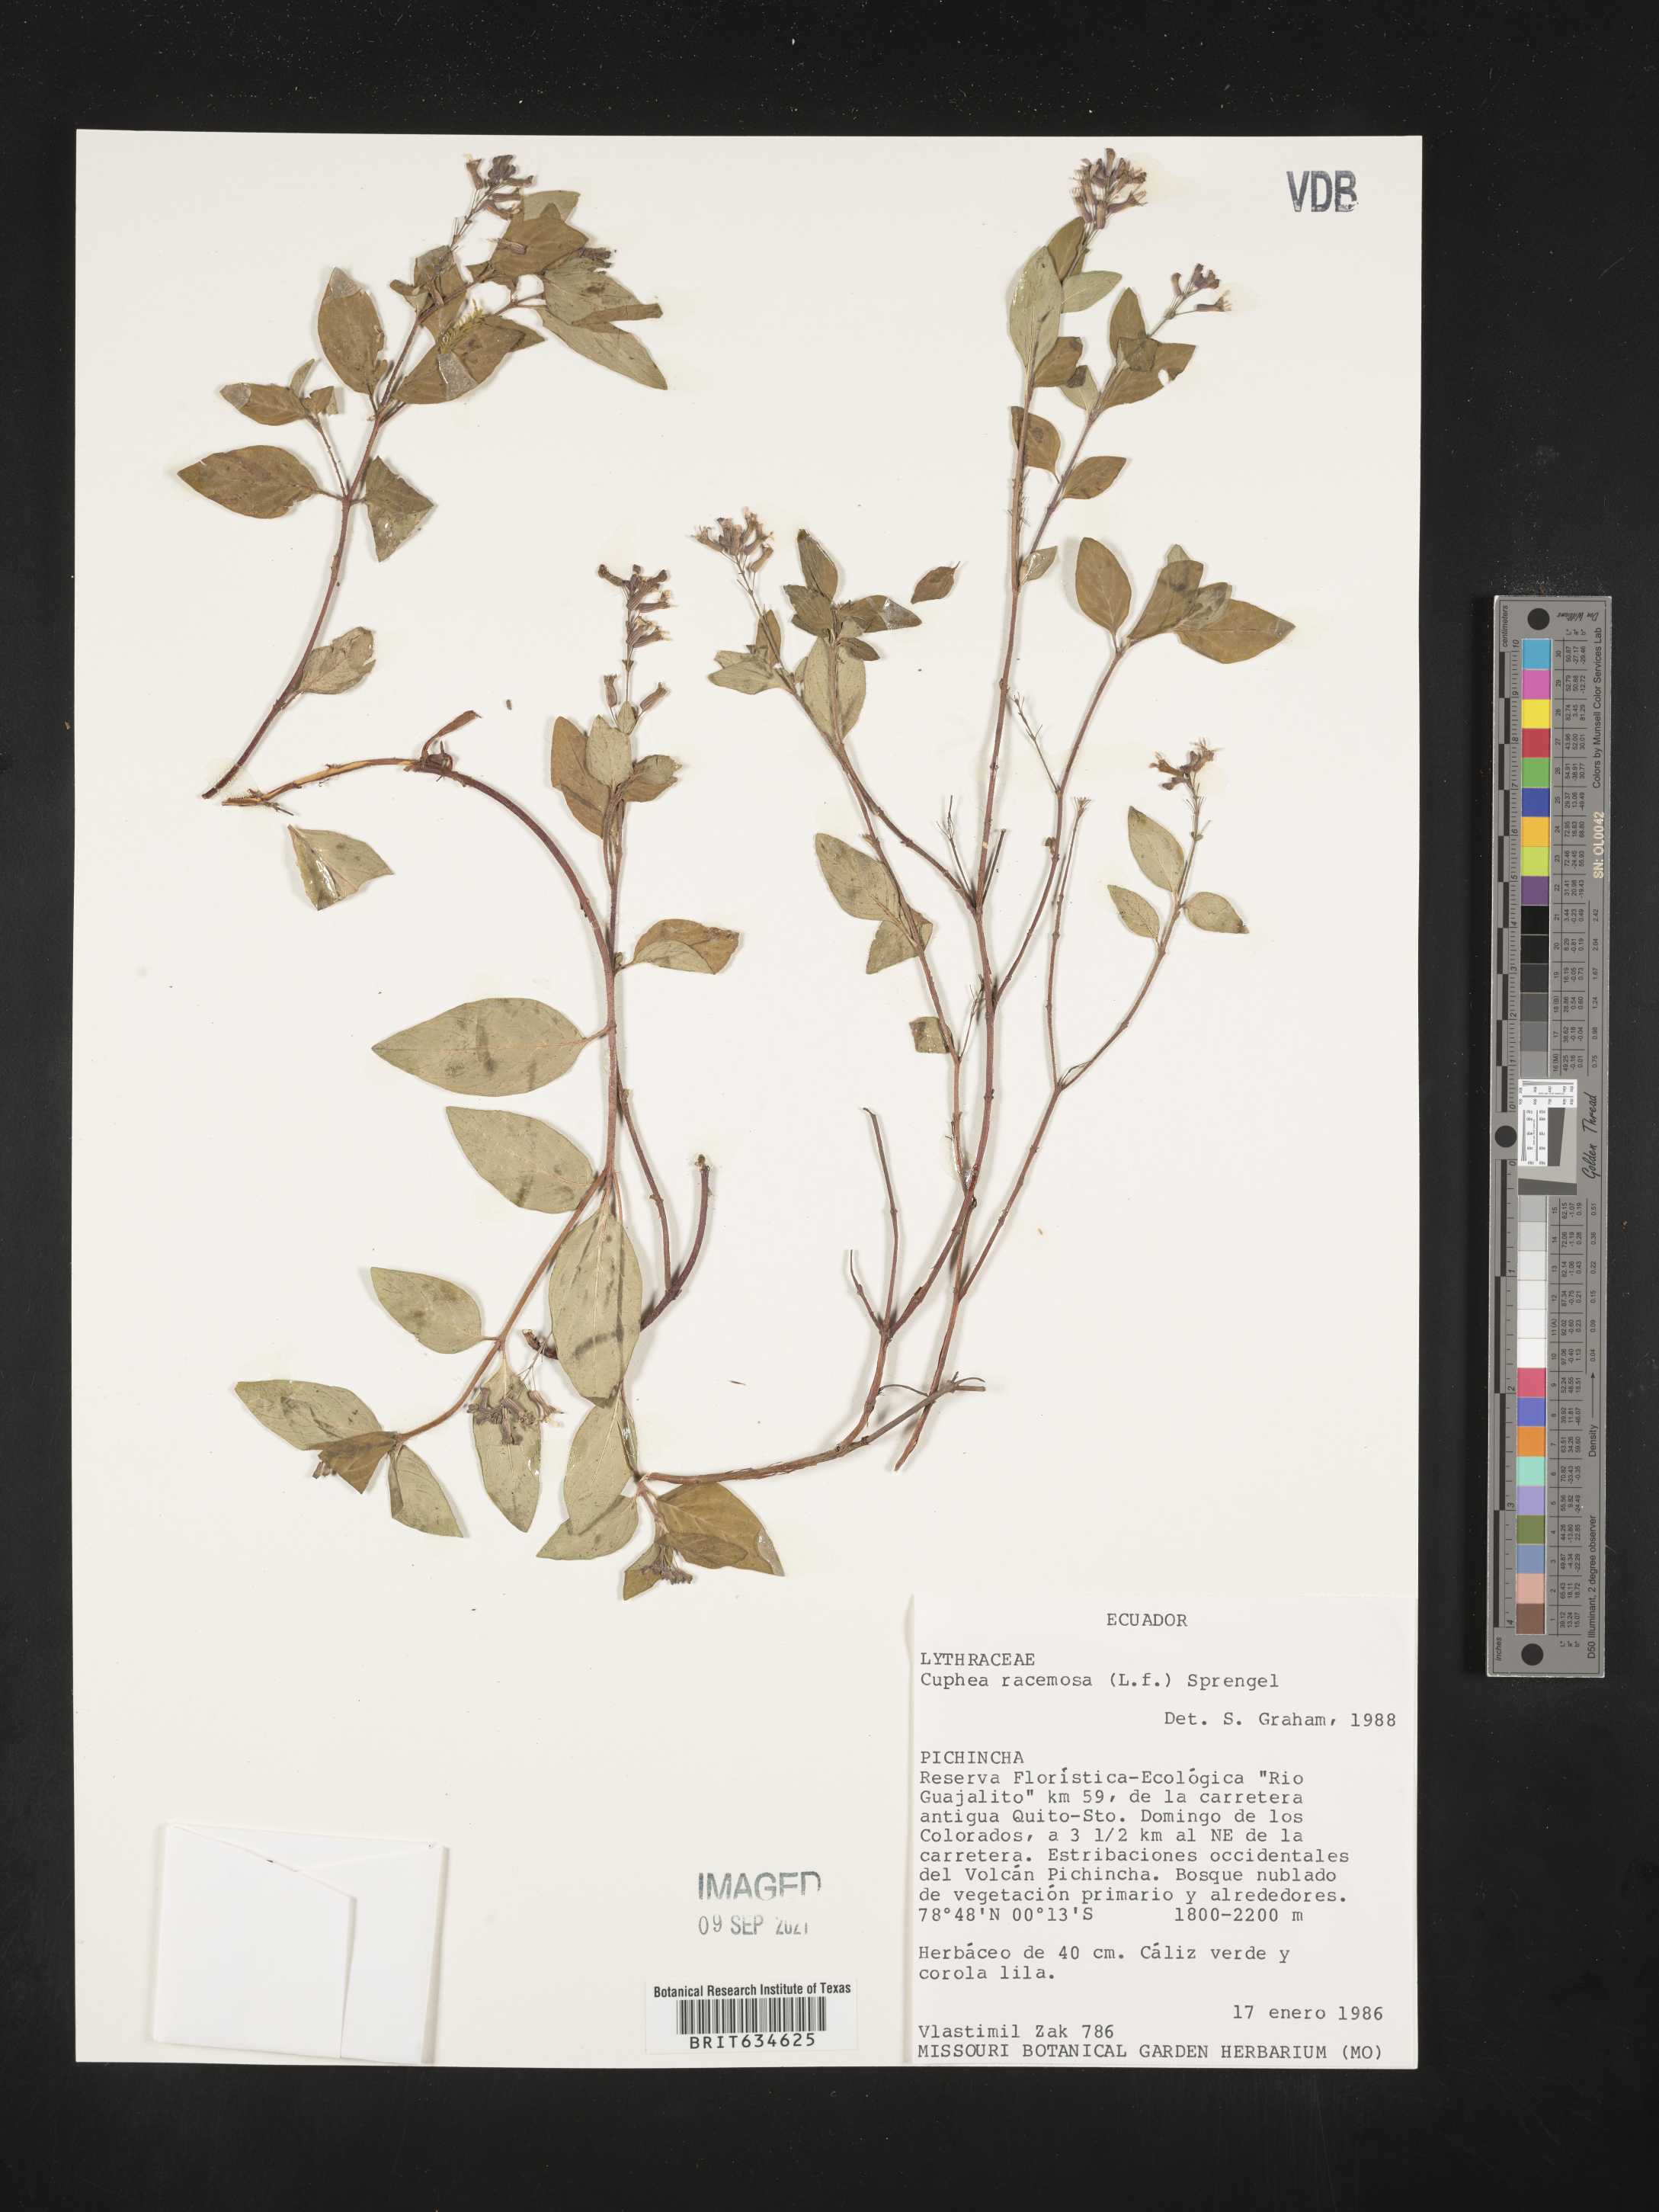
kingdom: Plantae
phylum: Tracheophyta
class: Magnoliopsida
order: Myrtales
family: Lythraceae
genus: Cuphea
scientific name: Cuphea
